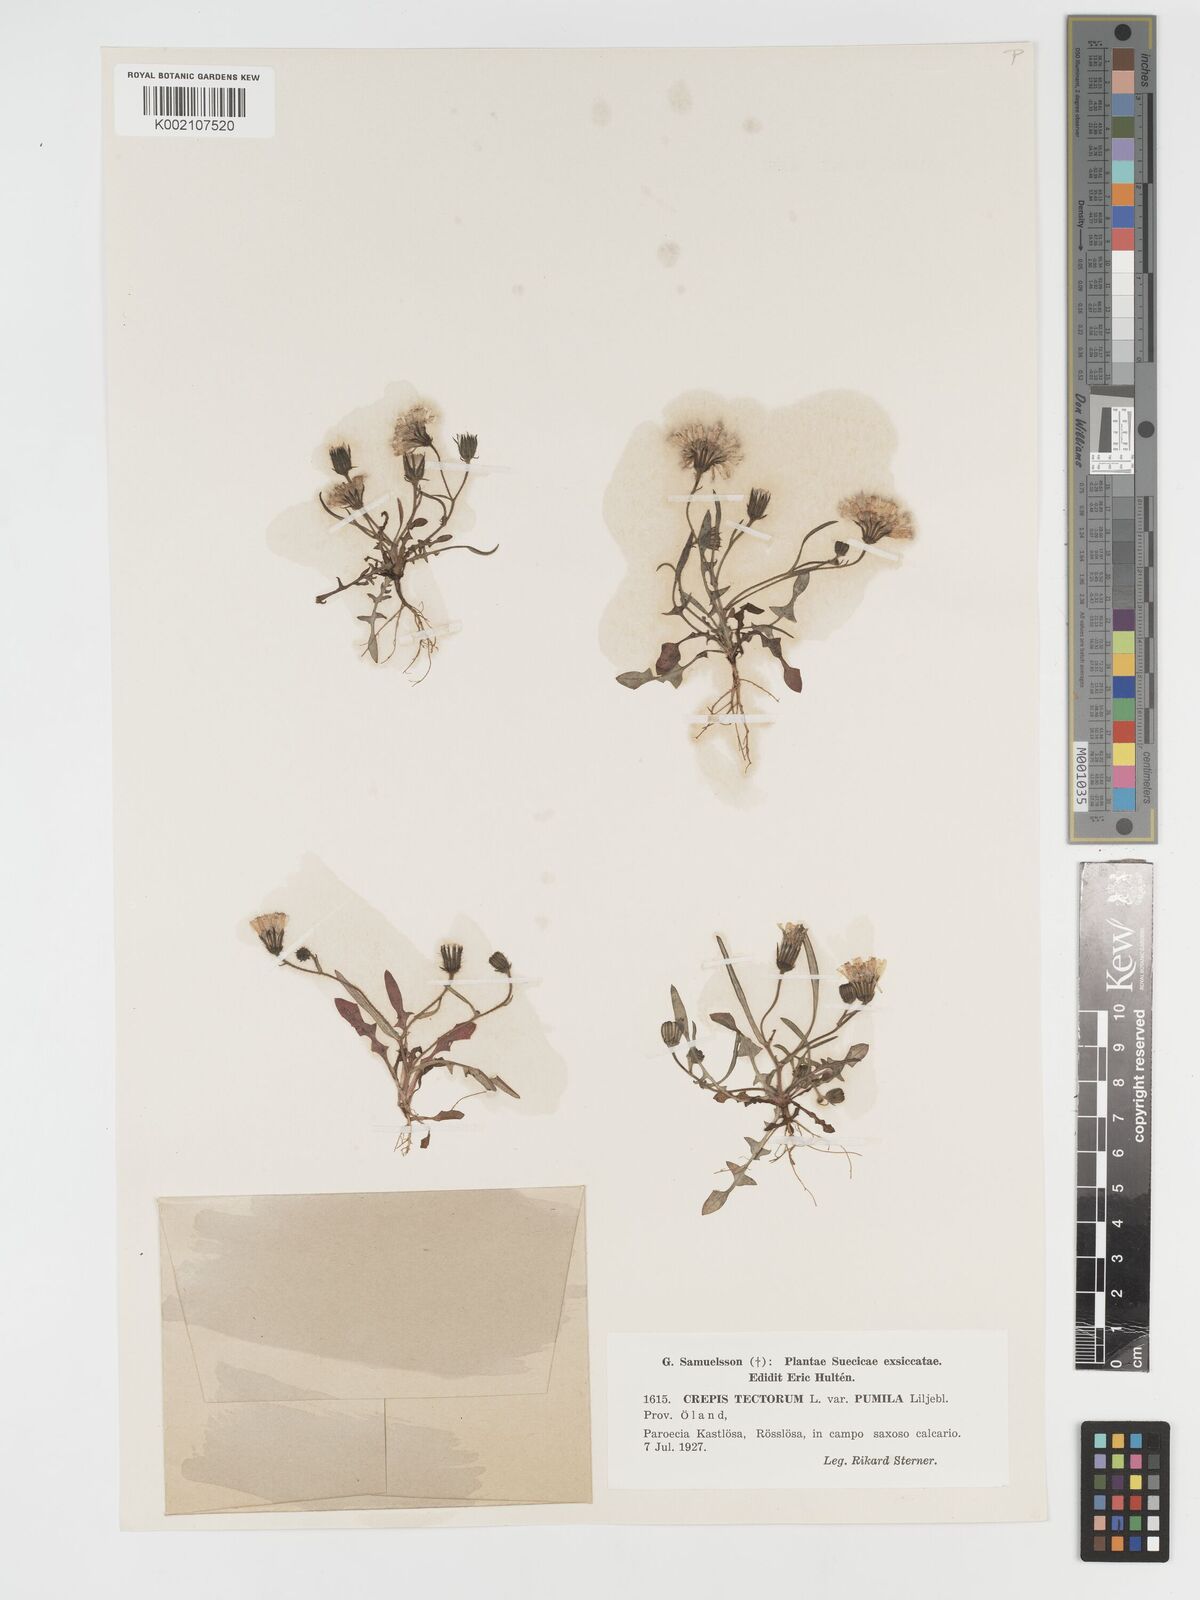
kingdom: Plantae
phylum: Tracheophyta
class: Magnoliopsida
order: Asterales
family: Asteraceae
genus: Crepis
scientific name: Crepis tectorum
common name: Narrow-leaved hawk's-beard
